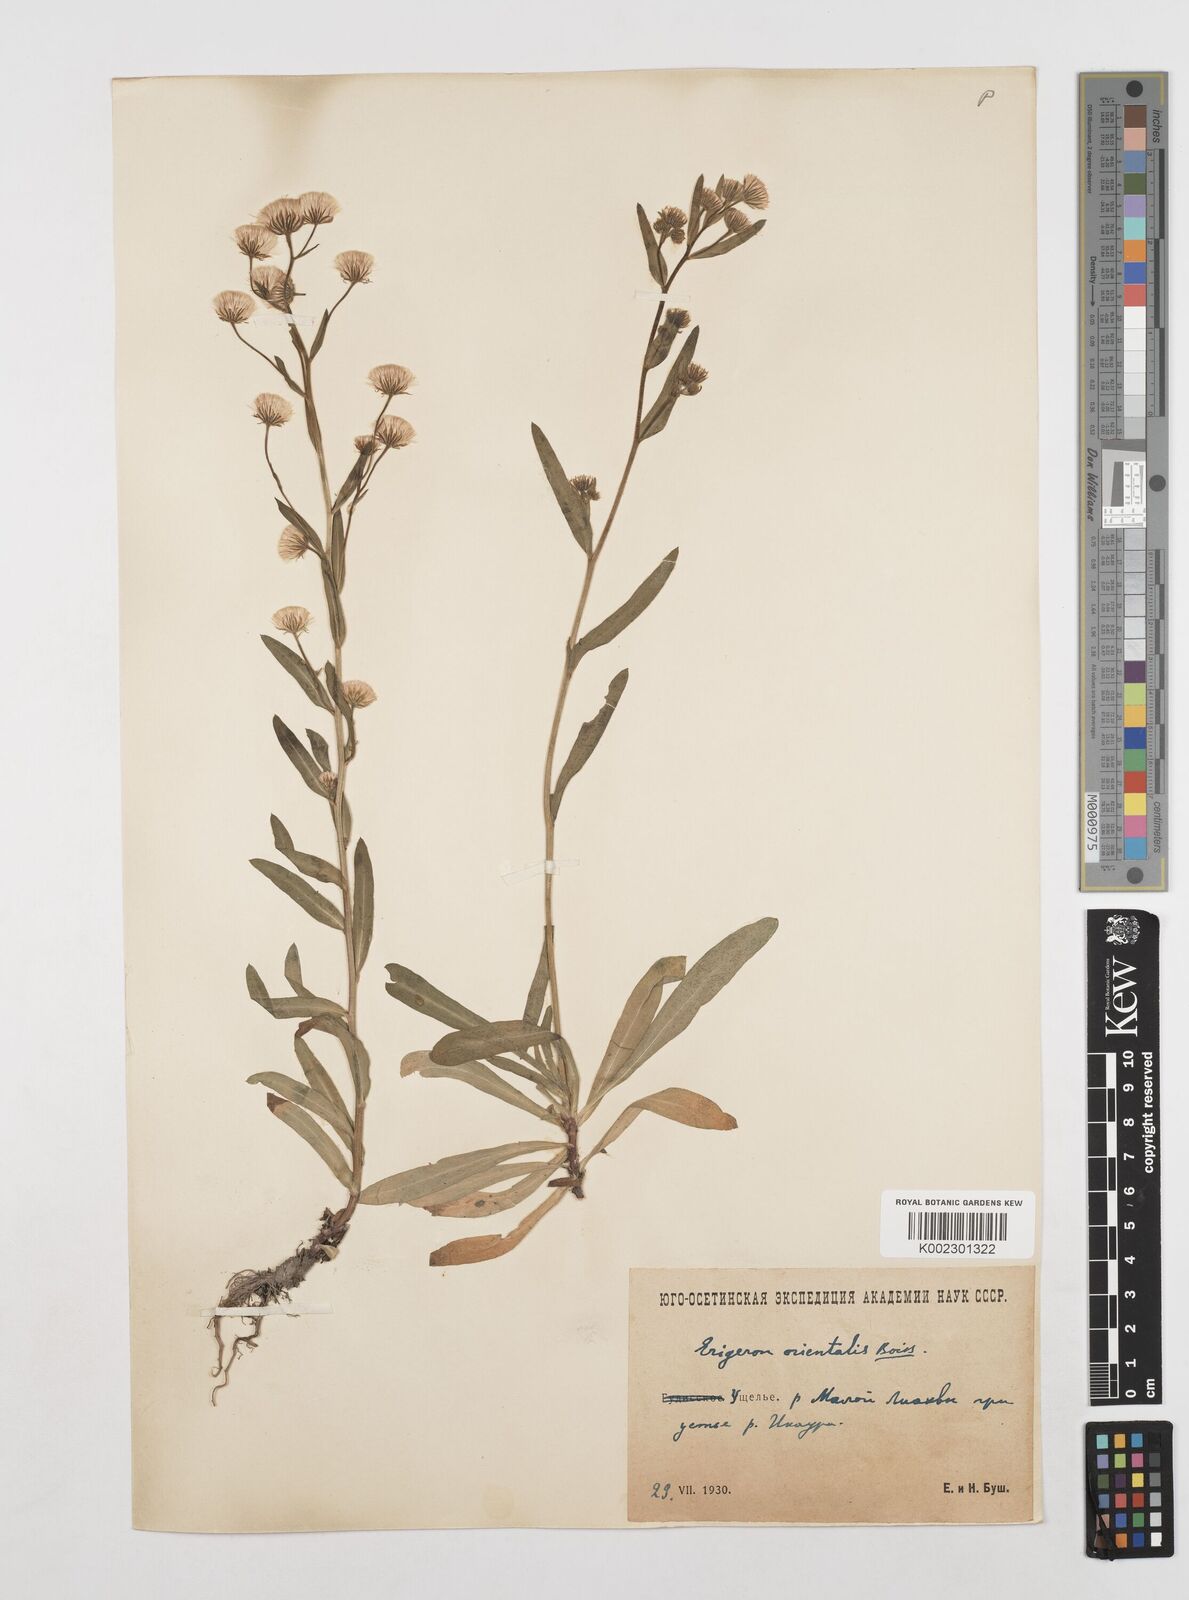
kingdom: Plantae
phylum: Tracheophyta
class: Magnoliopsida
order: Asterales
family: Asteraceae
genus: Erigeron
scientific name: Erigeron acris
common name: Blue fleabane
